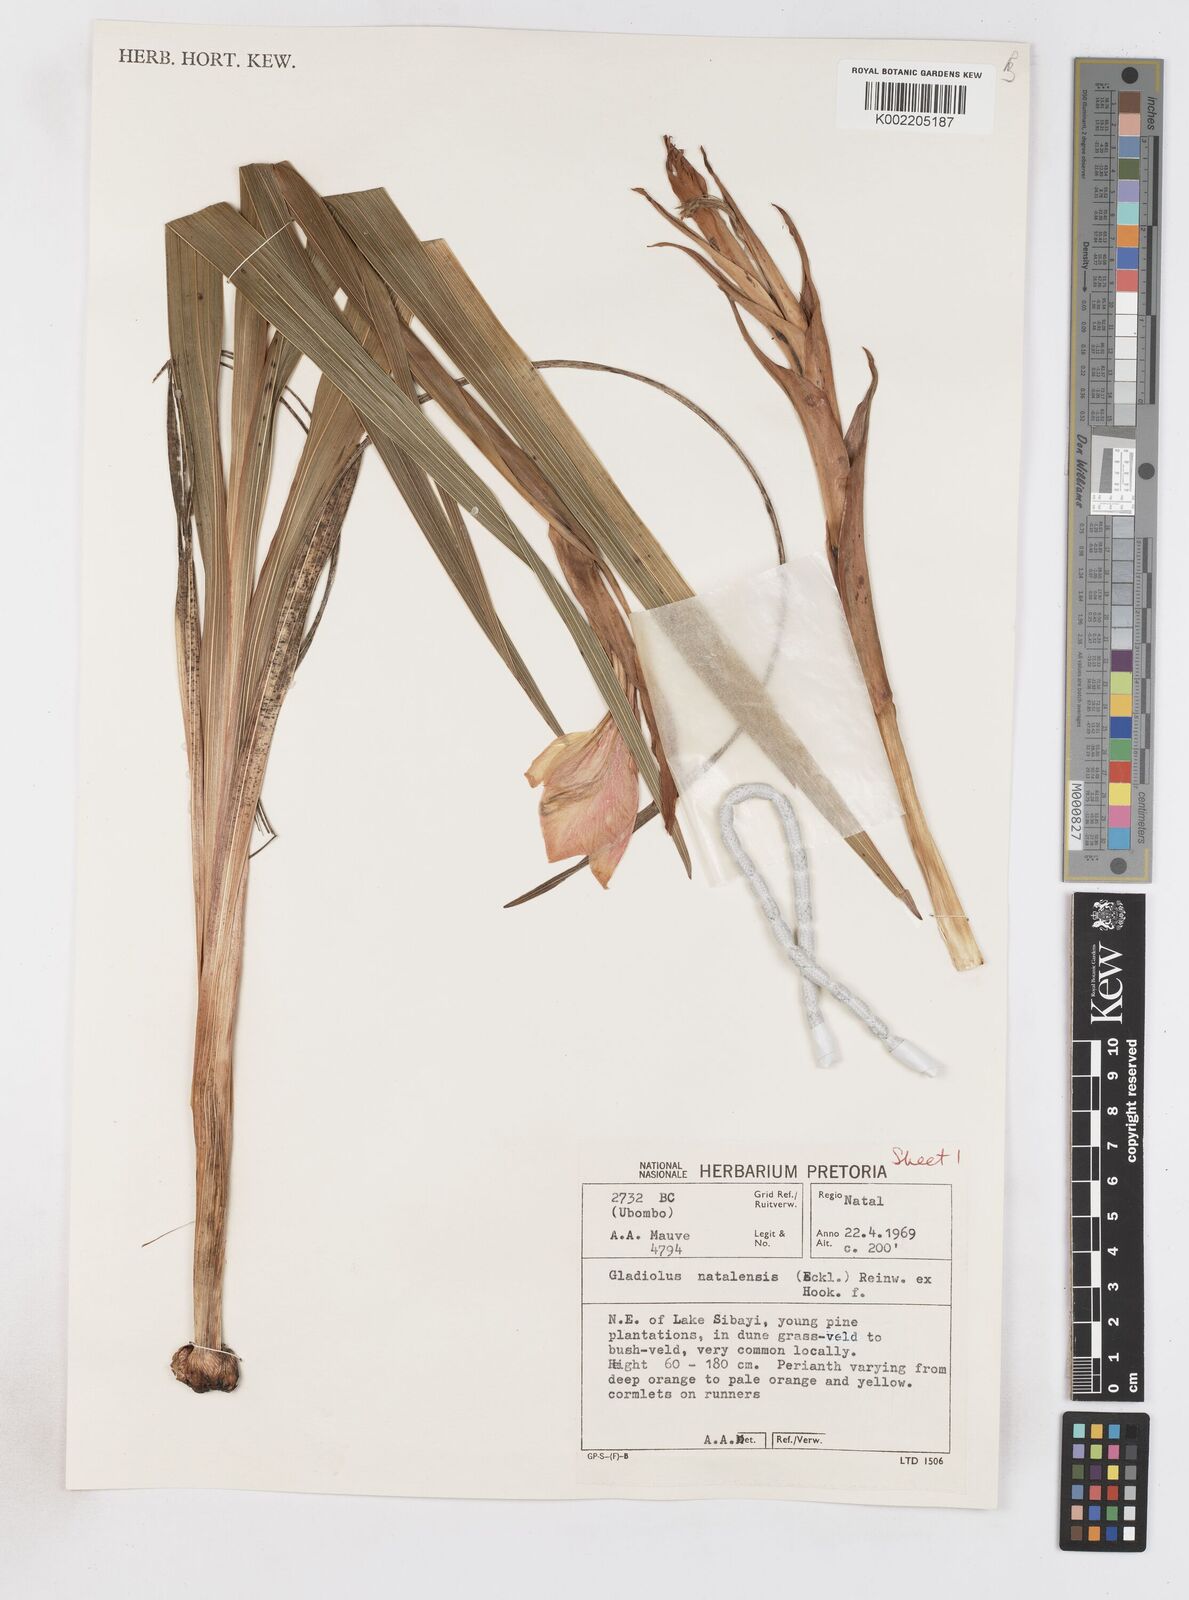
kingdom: Plantae
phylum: Tracheophyta
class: Liliopsida
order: Asparagales
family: Iridaceae
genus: Gladiolus
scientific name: Gladiolus dalenii
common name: Cornflag
